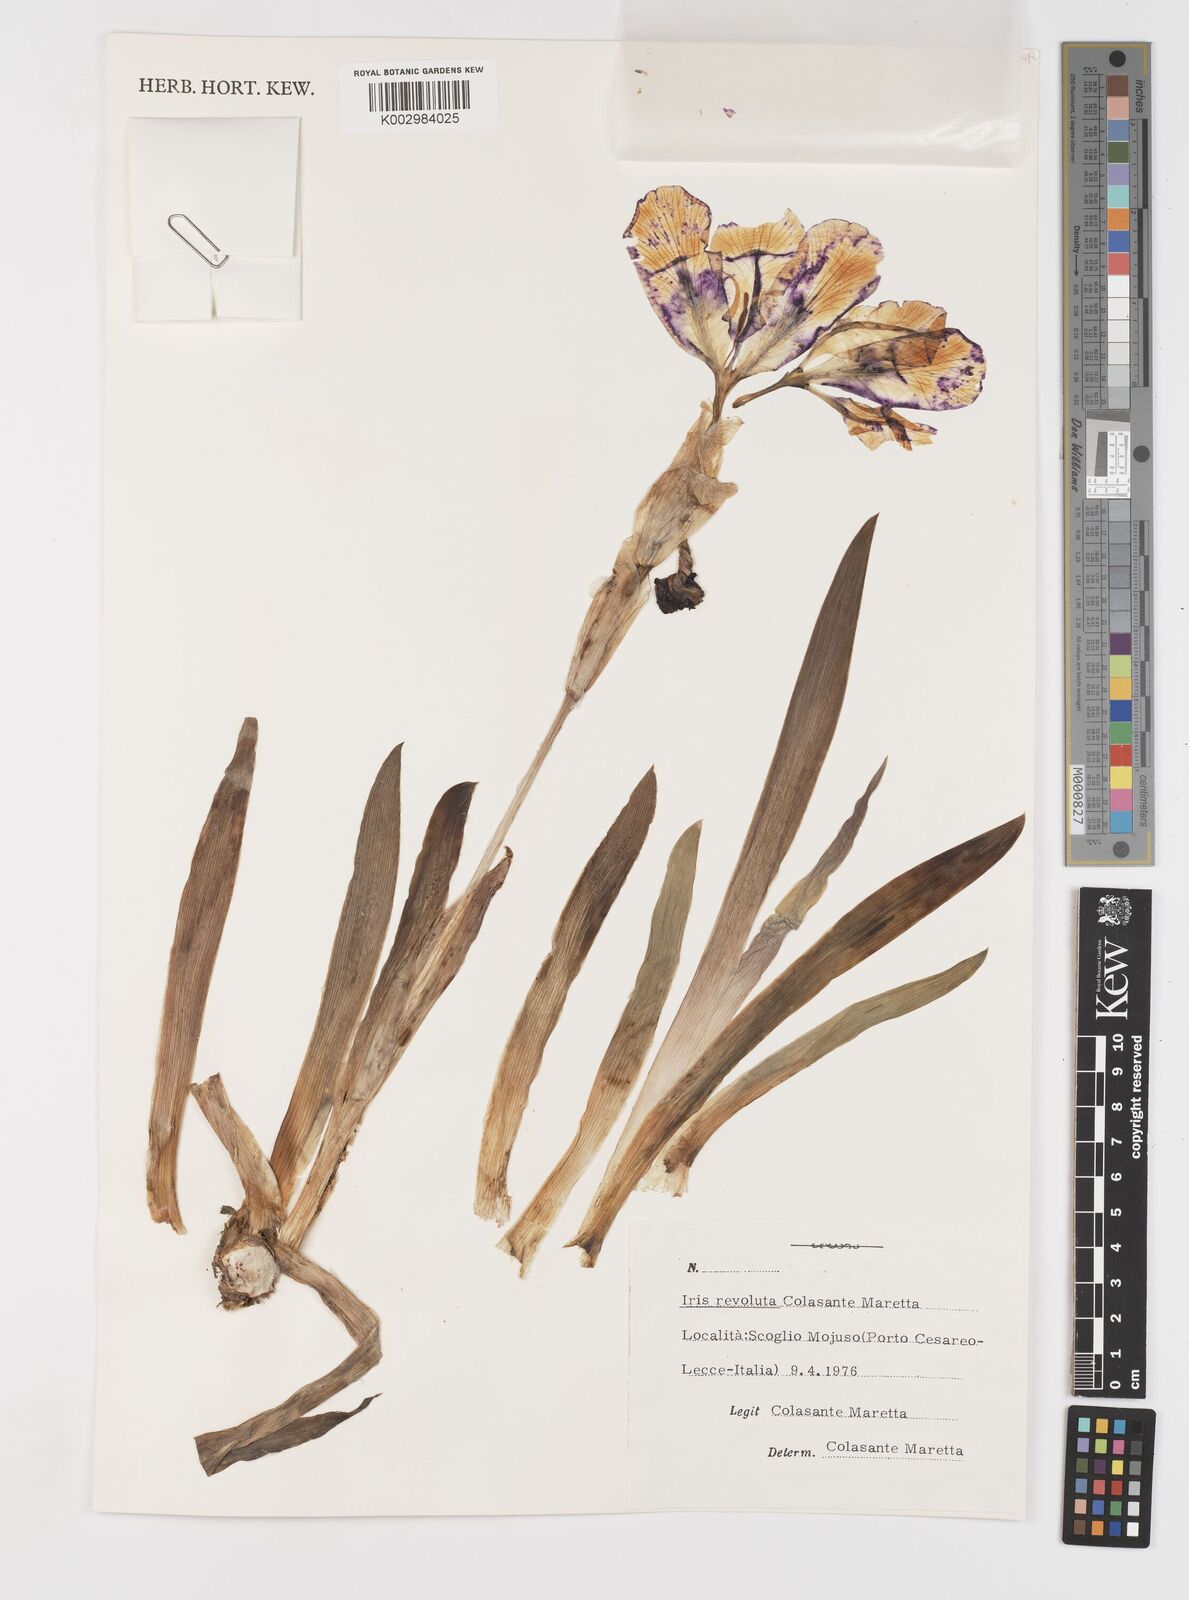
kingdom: Plantae
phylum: Tracheophyta
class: Liliopsida
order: Asparagales
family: Iridaceae
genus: Iris
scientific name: Iris revoluta
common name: Salento iris
